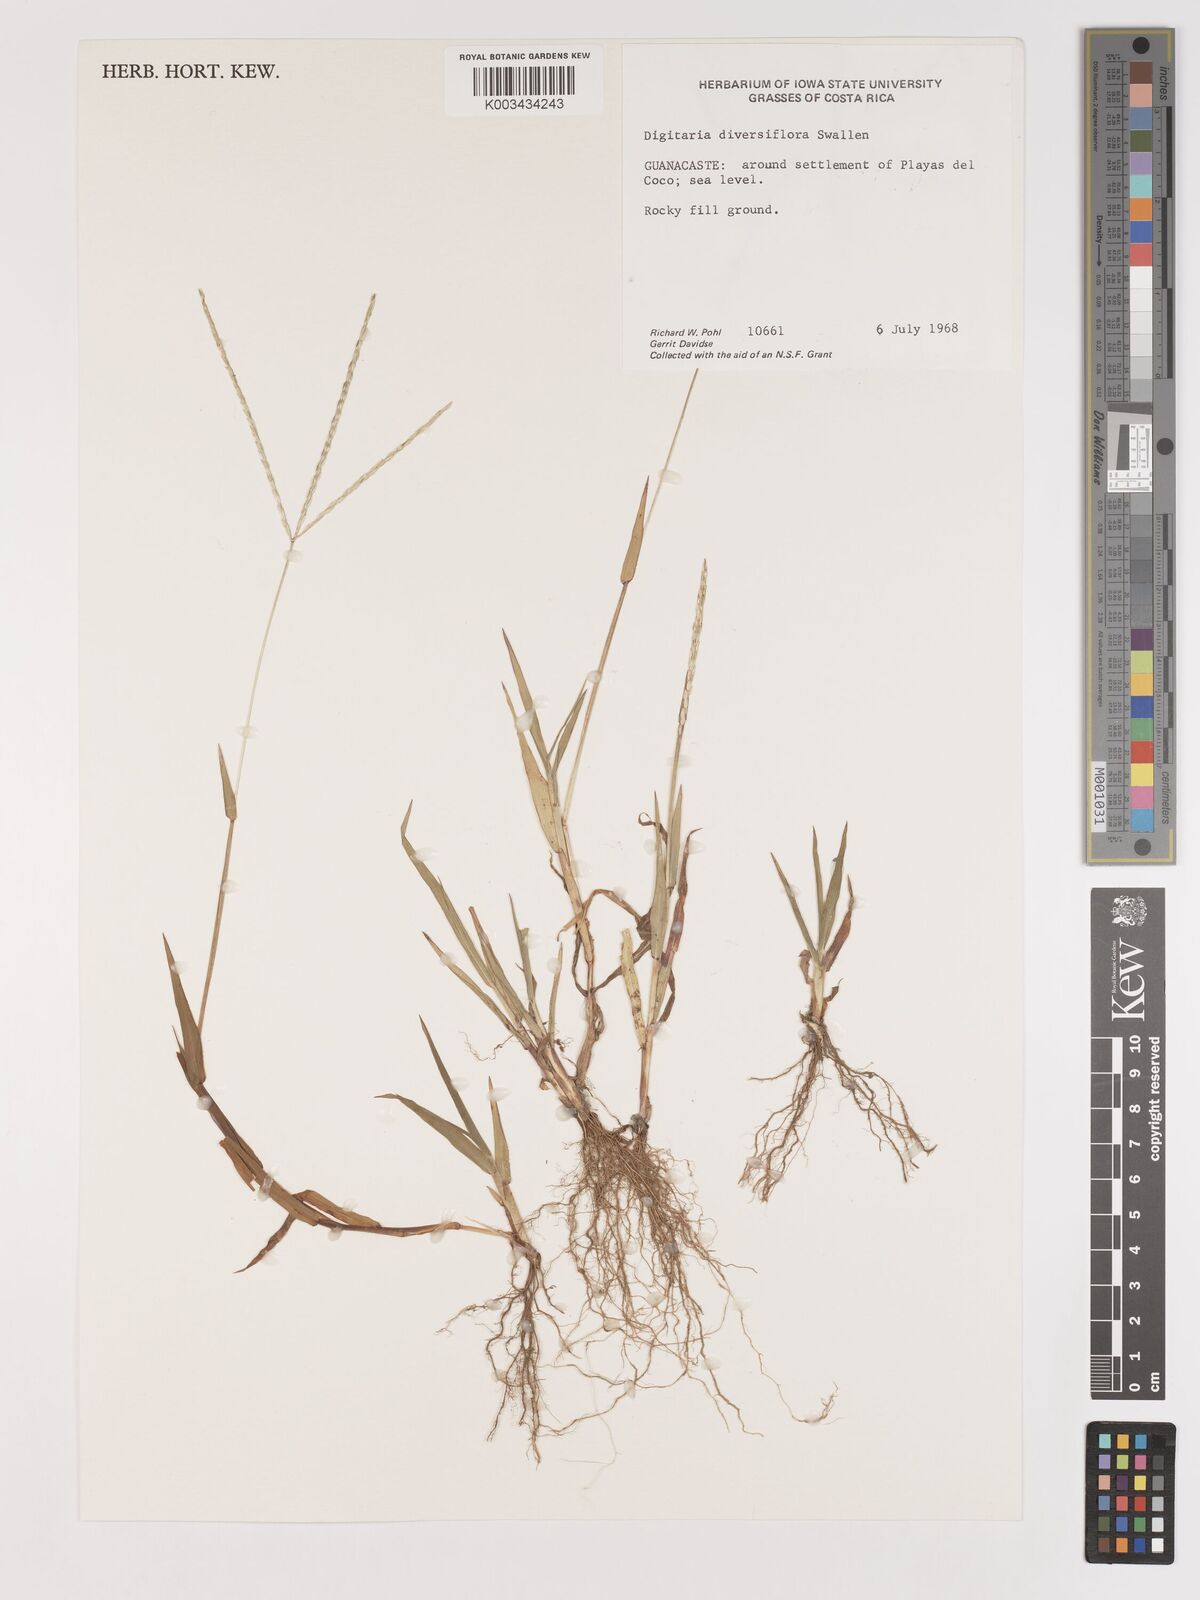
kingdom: Plantae
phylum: Tracheophyta
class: Liliopsida
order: Poales
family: Poaceae
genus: Digitaria
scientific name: Digitaria bicornis
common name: Asian crabgrass
